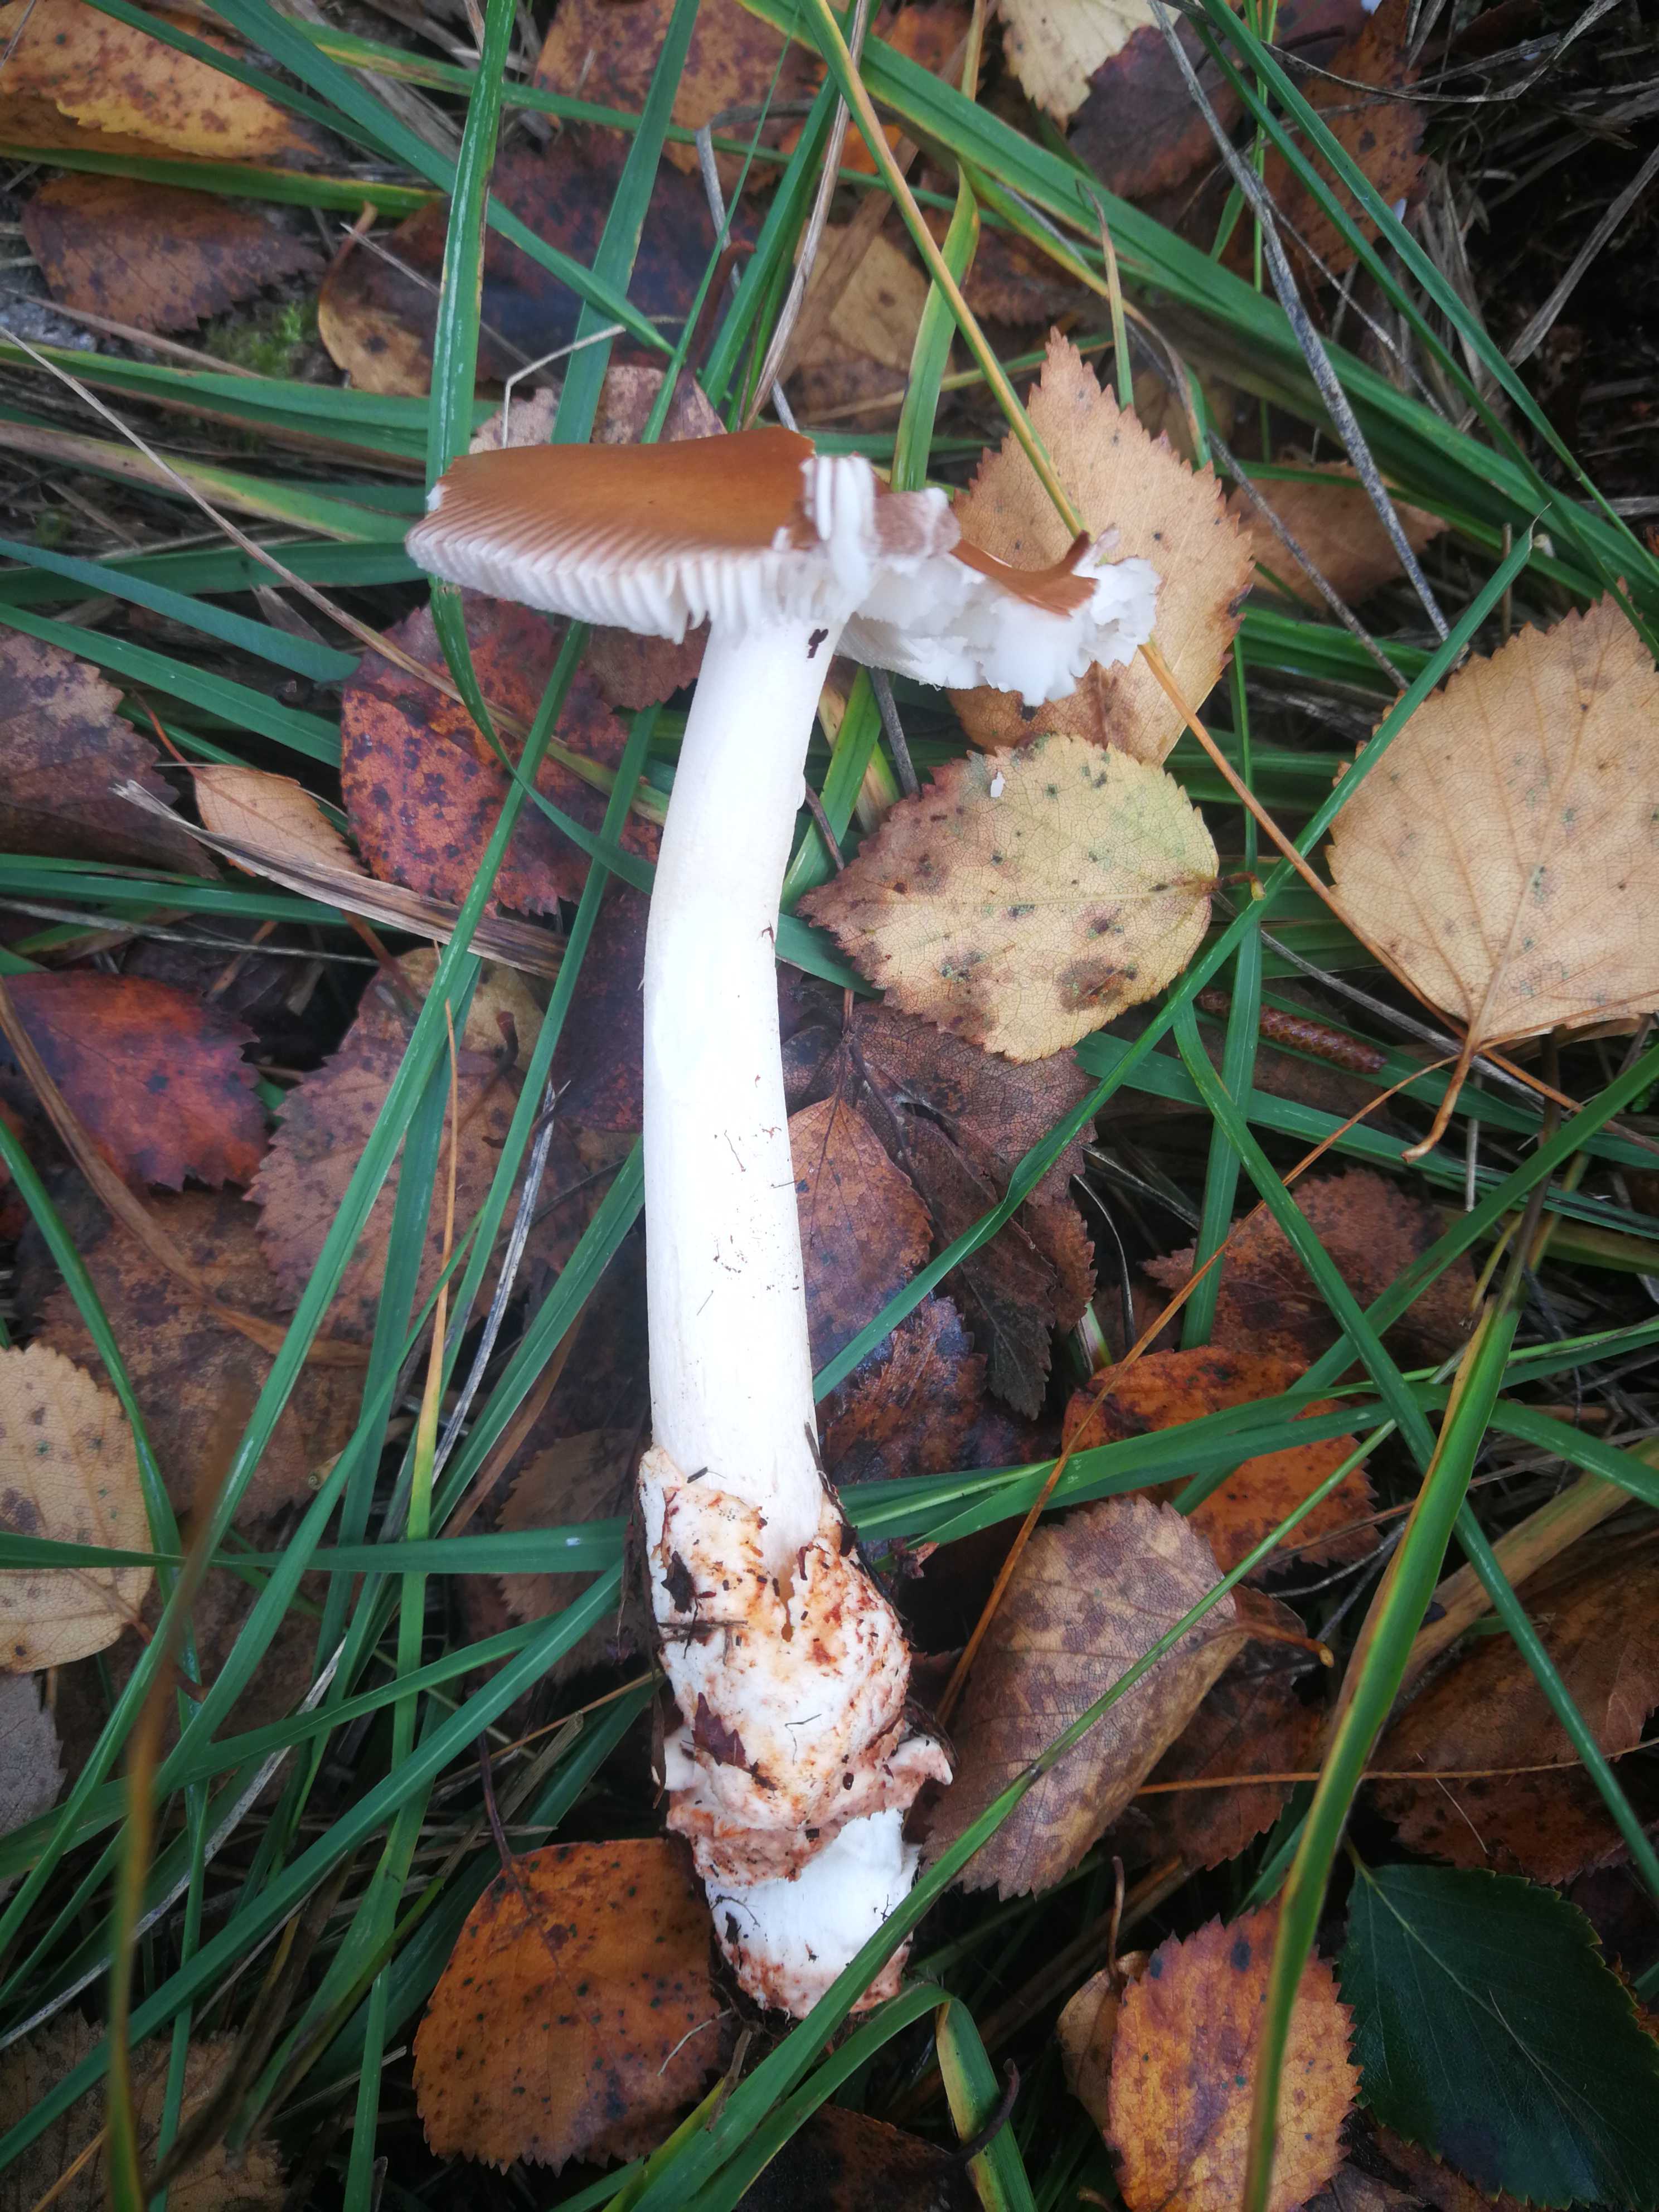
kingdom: Fungi
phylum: Basidiomycota
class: Agaricomycetes
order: Agaricales
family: Amanitaceae
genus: Amanita
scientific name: Amanita fulva
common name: brun kam-fluesvamp
